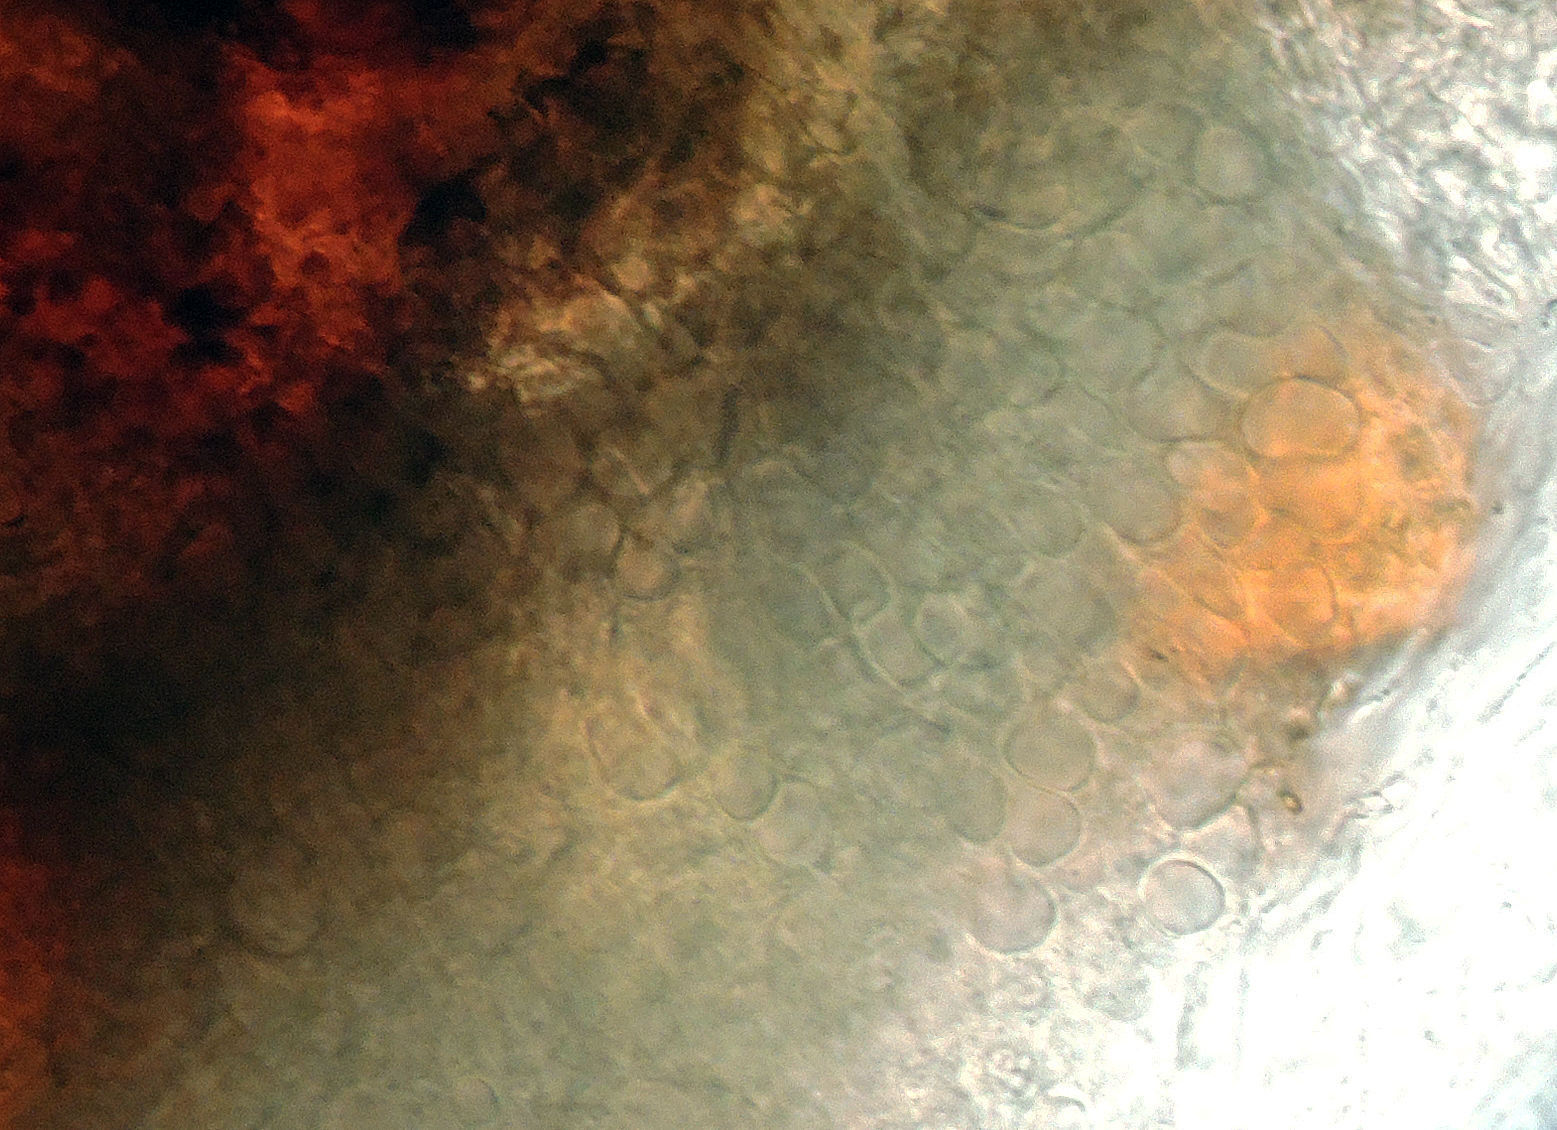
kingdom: Fungi
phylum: Ascomycota
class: Dothideomycetes
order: Pleosporales
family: Teichosporaceae
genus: Teichospora
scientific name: Teichospora
